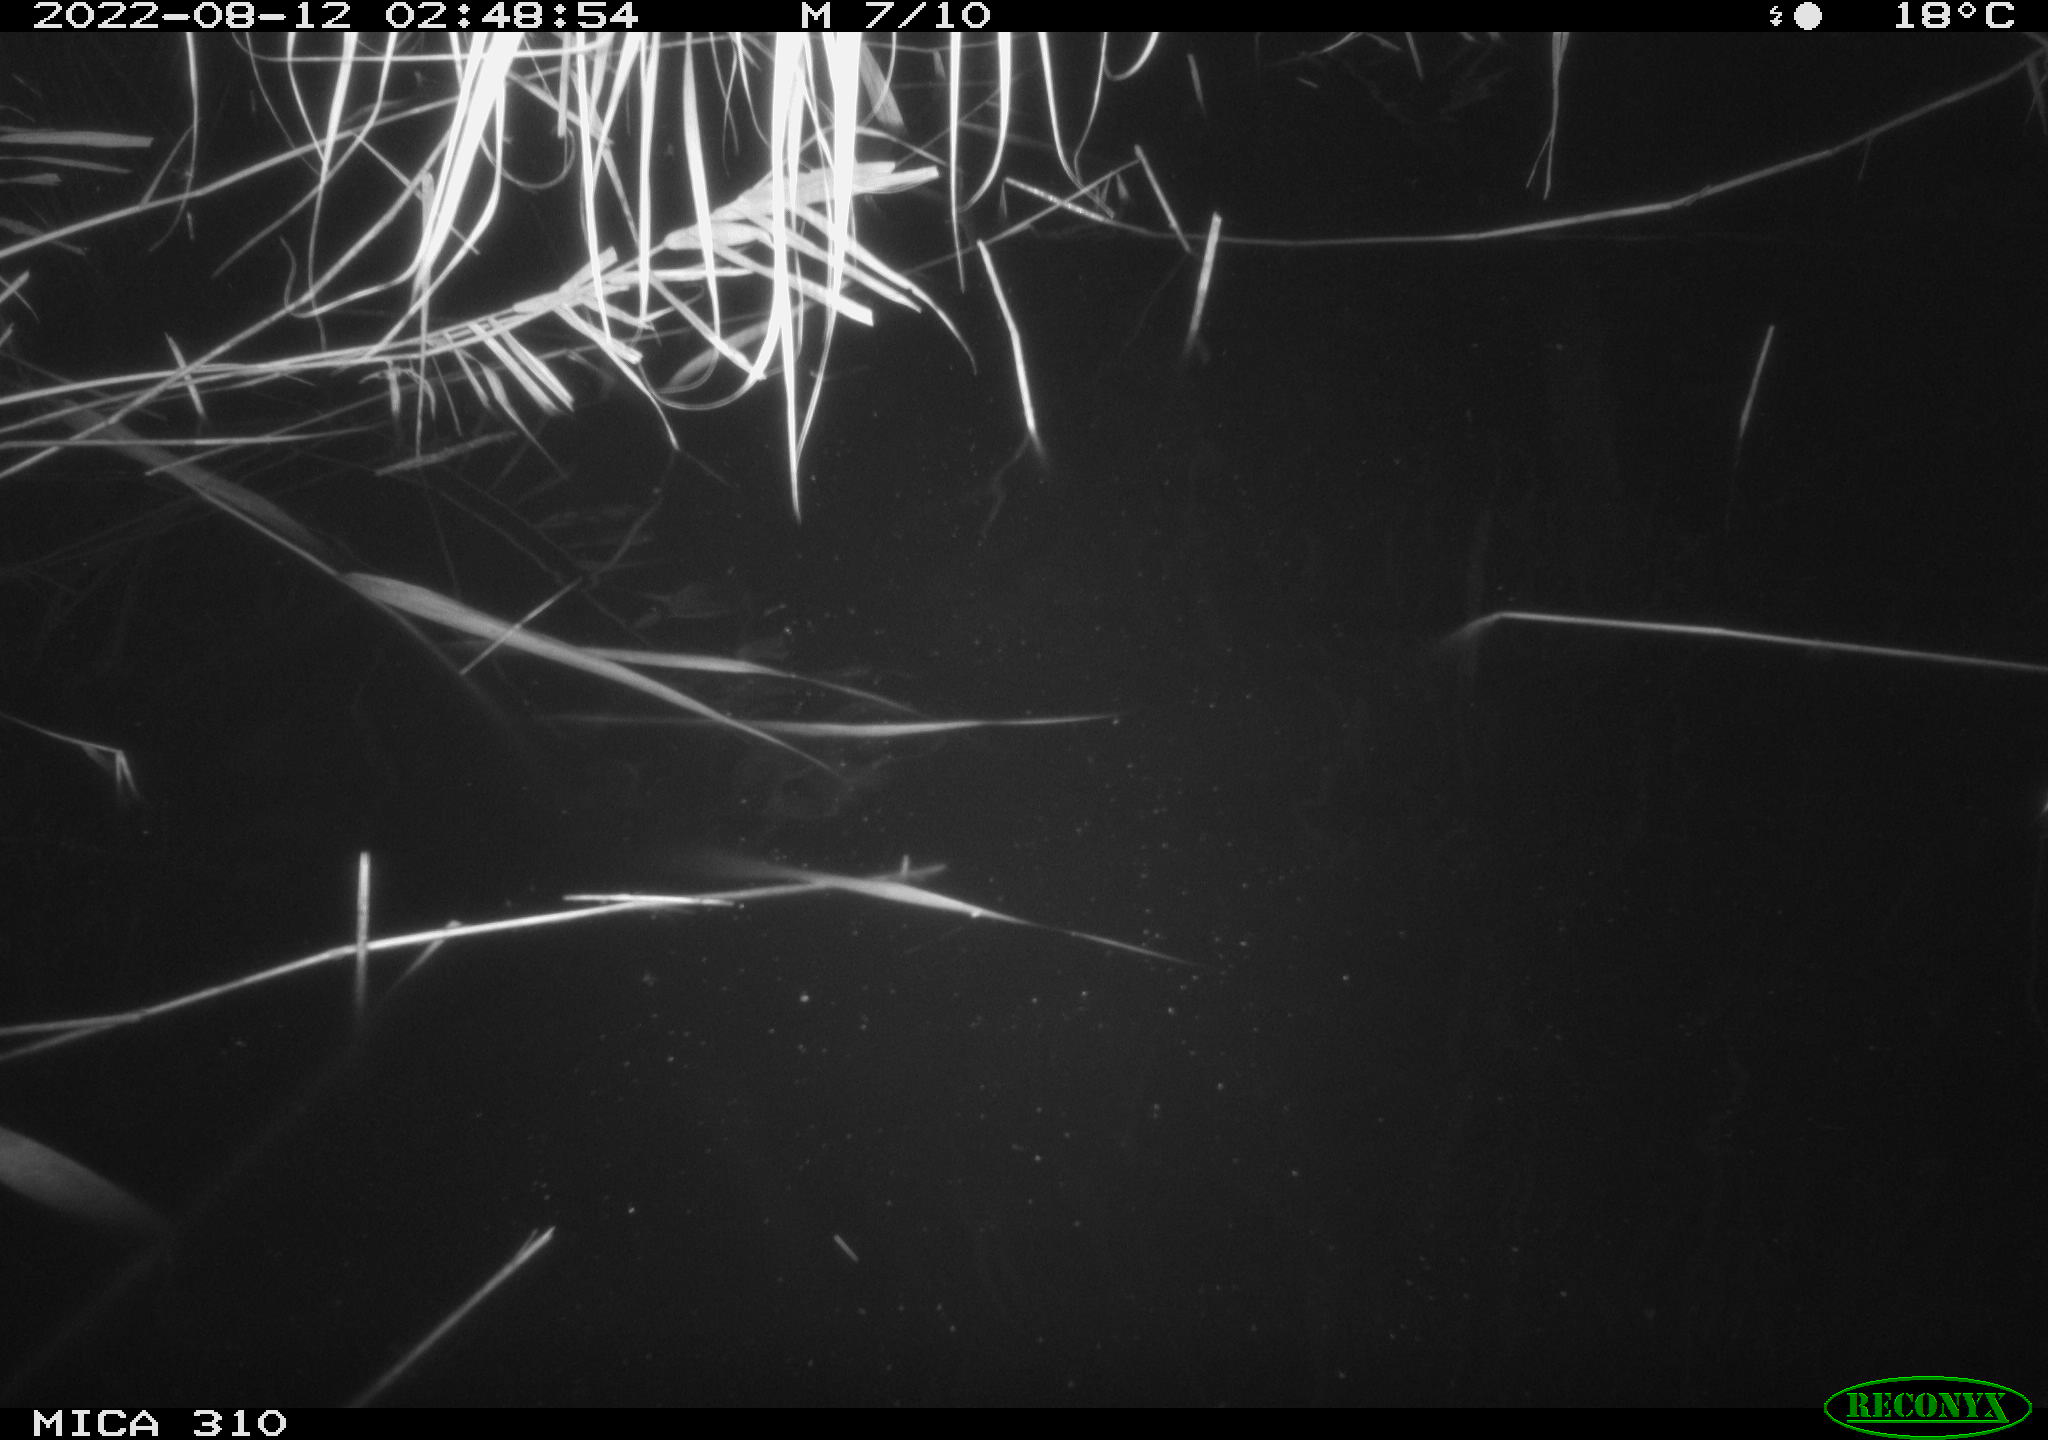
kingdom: Animalia
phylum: Chordata
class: Aves
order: Anseriformes
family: Anatidae
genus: Anas
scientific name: Anas platyrhynchos
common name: Mallard
